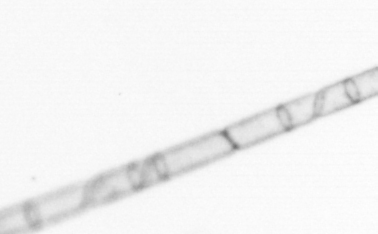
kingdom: Chromista
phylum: Ochrophyta
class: Bacillariophyceae
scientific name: Bacillariophyceae
